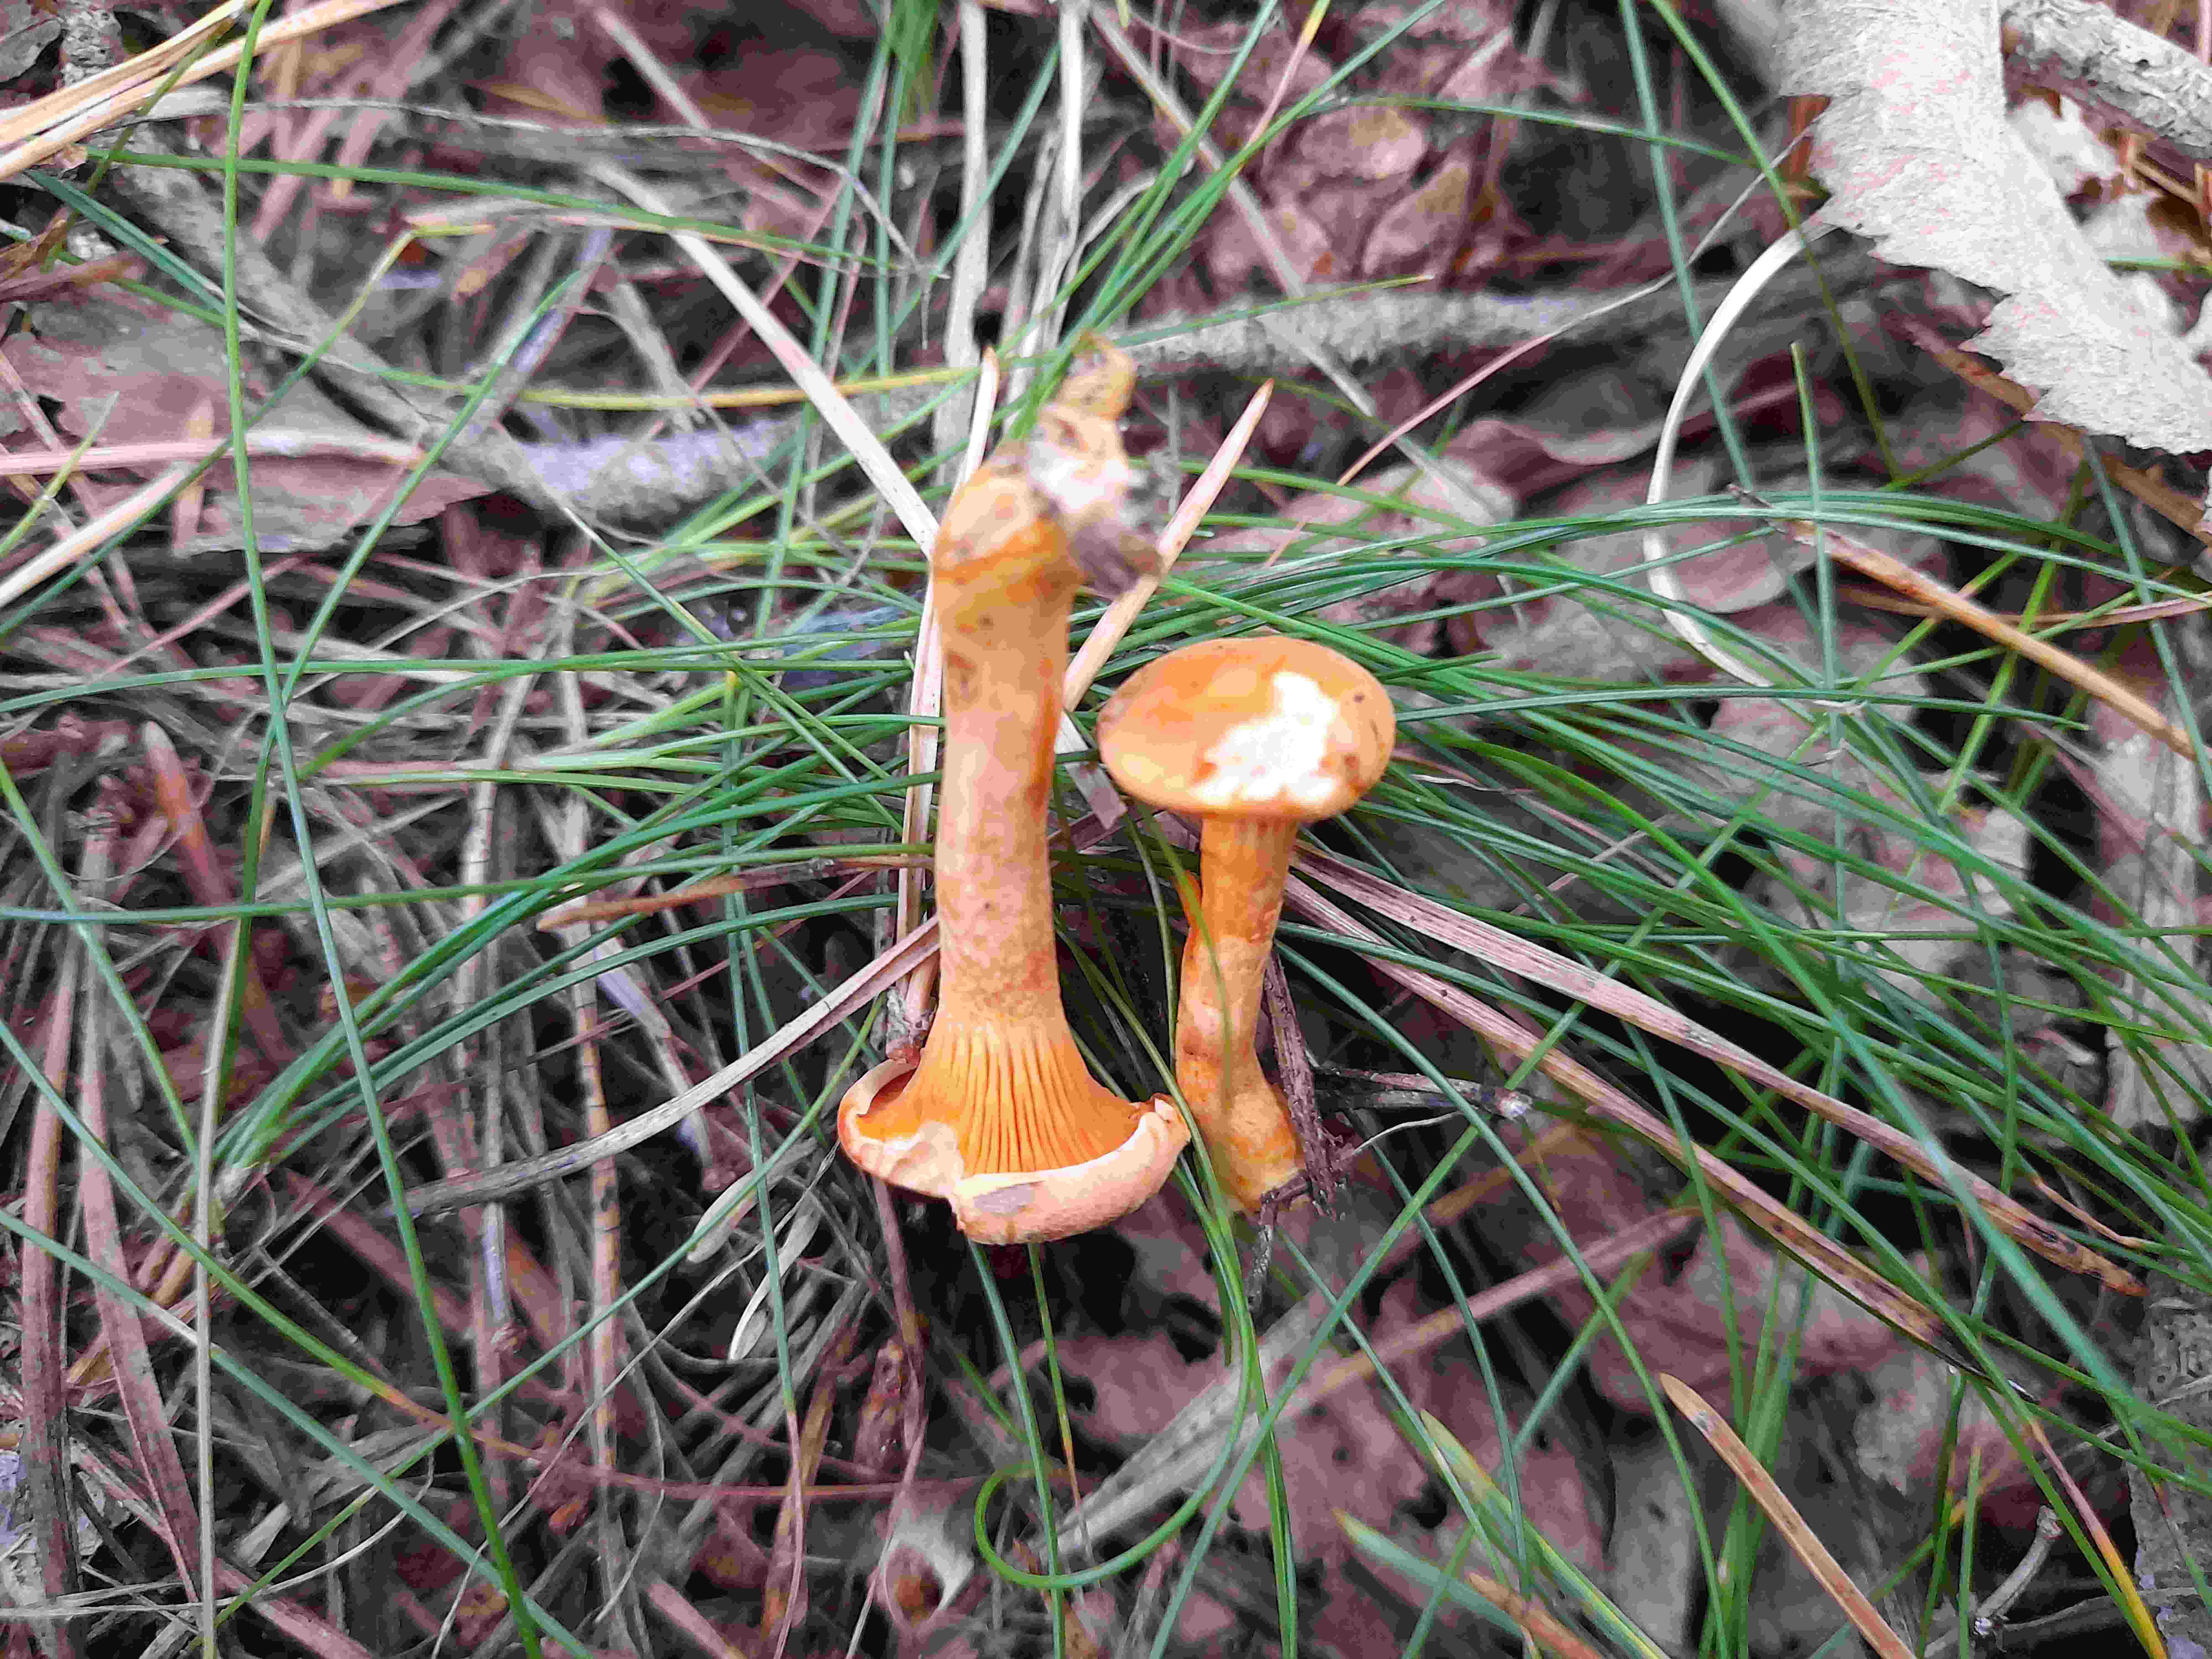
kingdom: Fungi
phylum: Basidiomycota
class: Agaricomycetes
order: Boletales
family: Hygrophoropsidaceae
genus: Hygrophoropsis
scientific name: Hygrophoropsis aurantiaca
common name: almindelig orangekantarel
